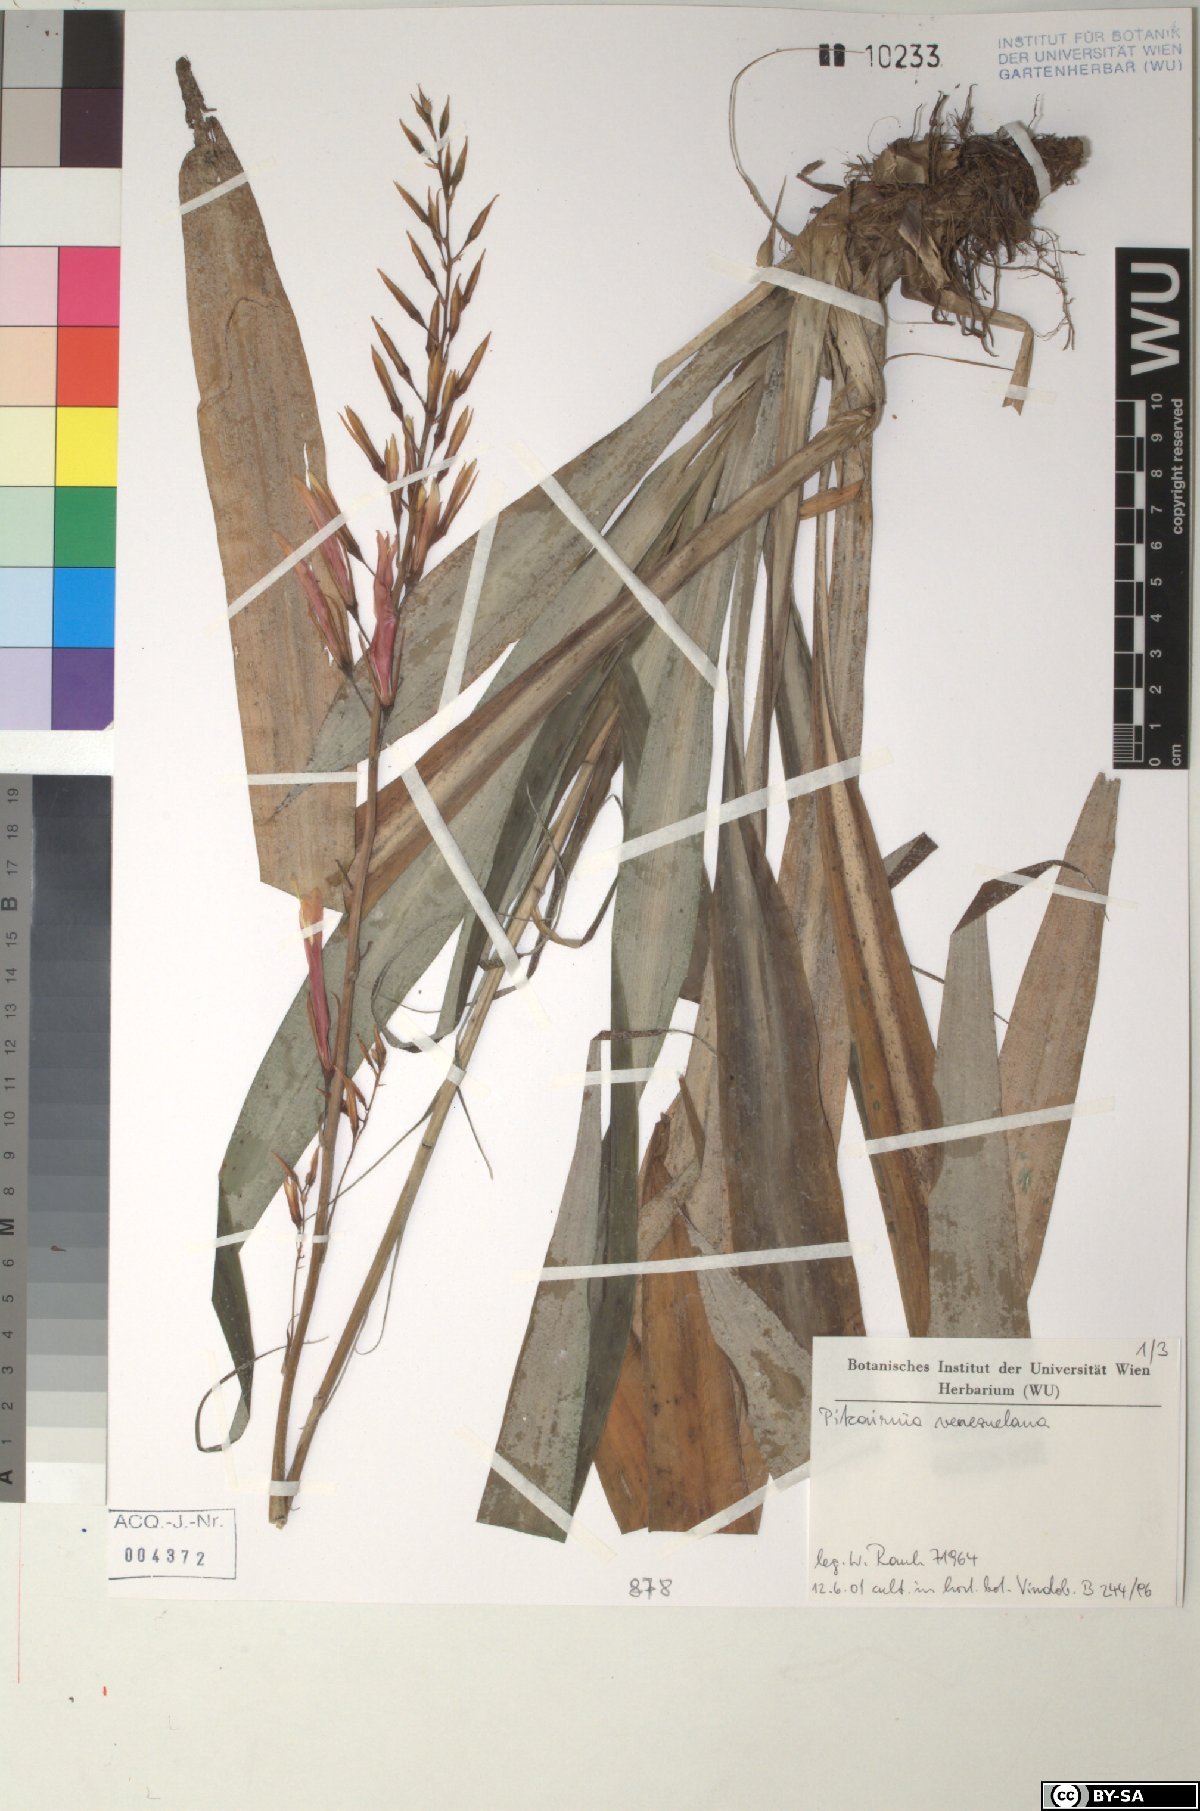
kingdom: Plantae
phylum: Tracheophyta
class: Liliopsida
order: Poales
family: Bromeliaceae
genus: Pitcairnia
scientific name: Pitcairnia venezuelana
